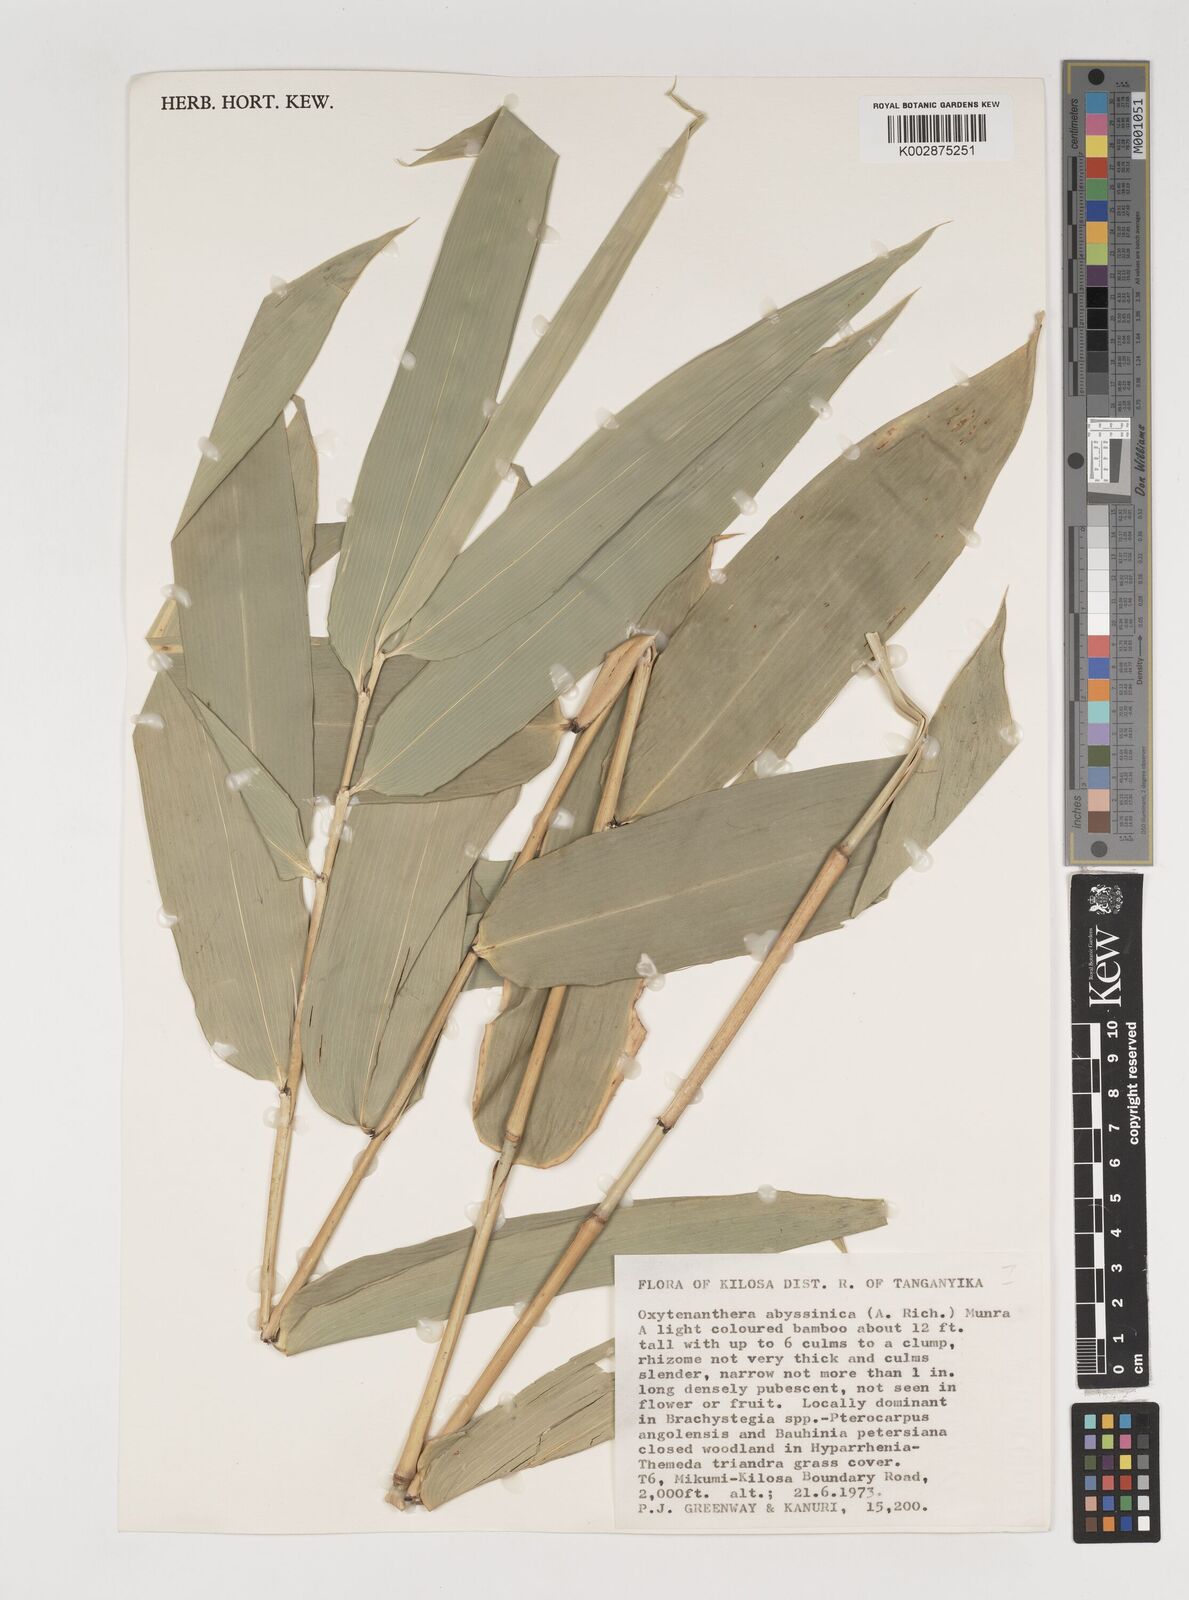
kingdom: Plantae
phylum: Tracheophyta
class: Liliopsida
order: Poales
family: Poaceae
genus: Oxytenanthera
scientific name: Oxytenanthera
